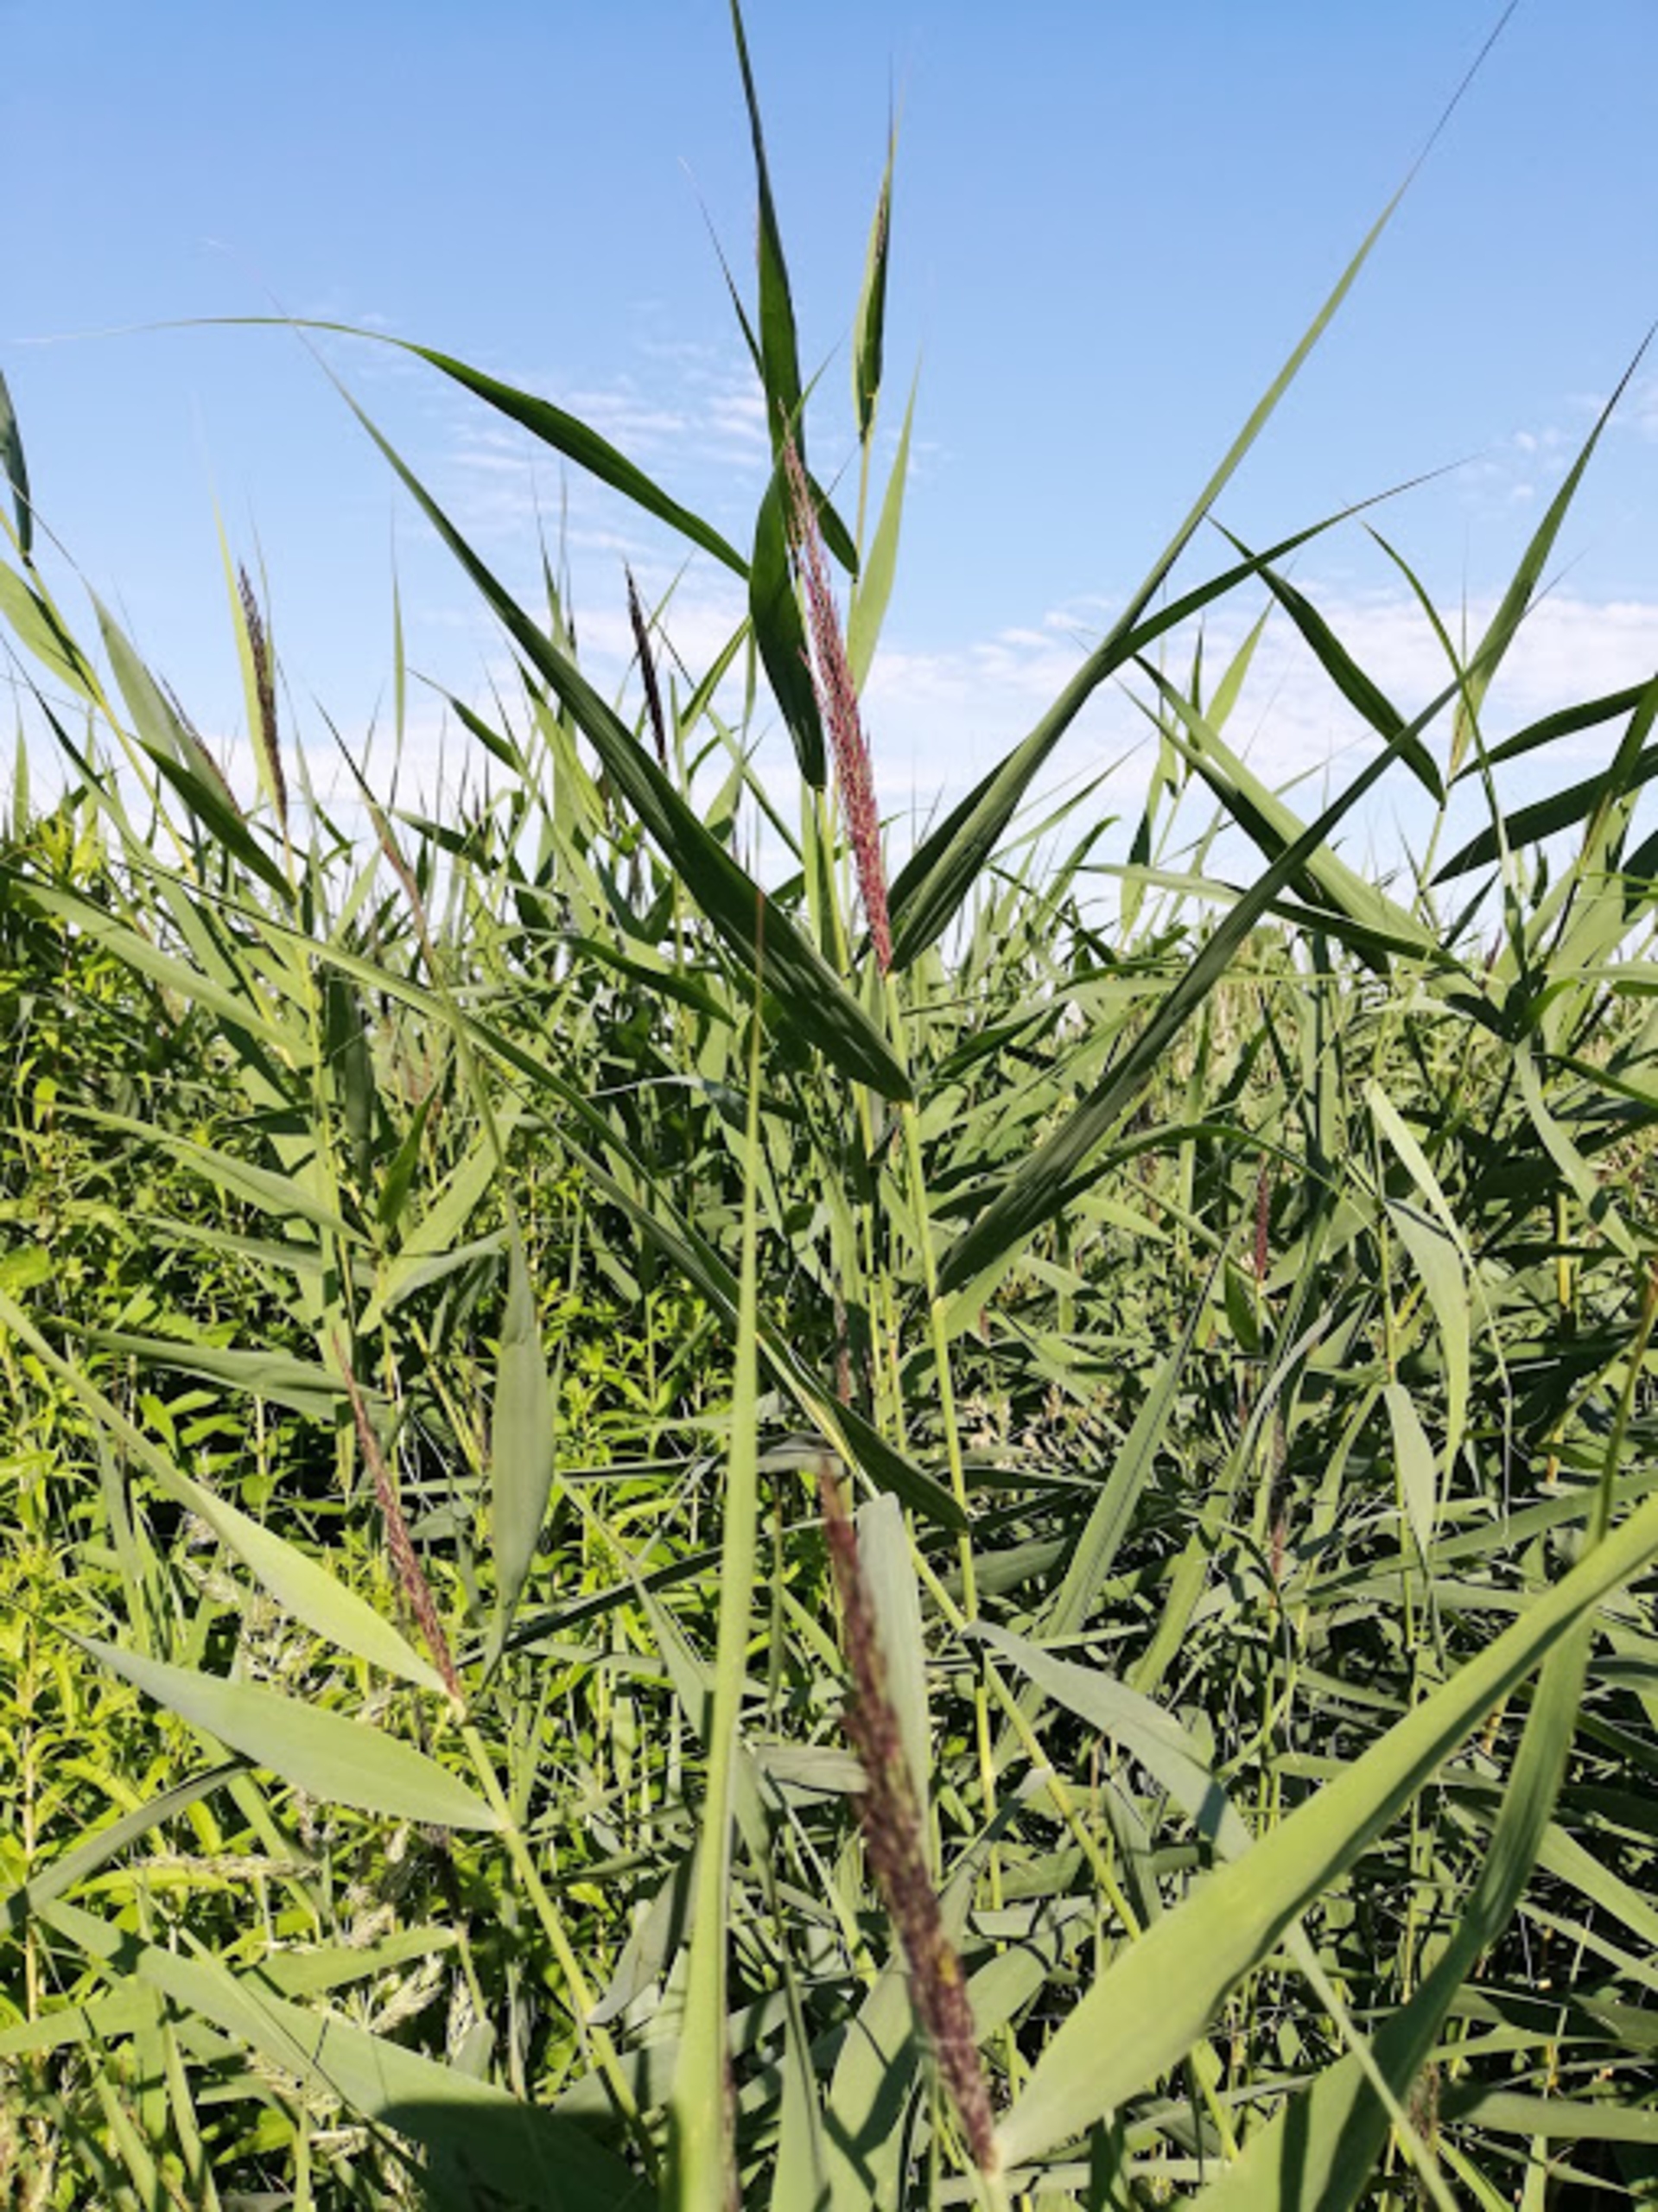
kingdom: Plantae
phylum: Tracheophyta
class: Liliopsida
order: Poales
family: Poaceae
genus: Phragmites
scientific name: Phragmites australis
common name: Tagrør
